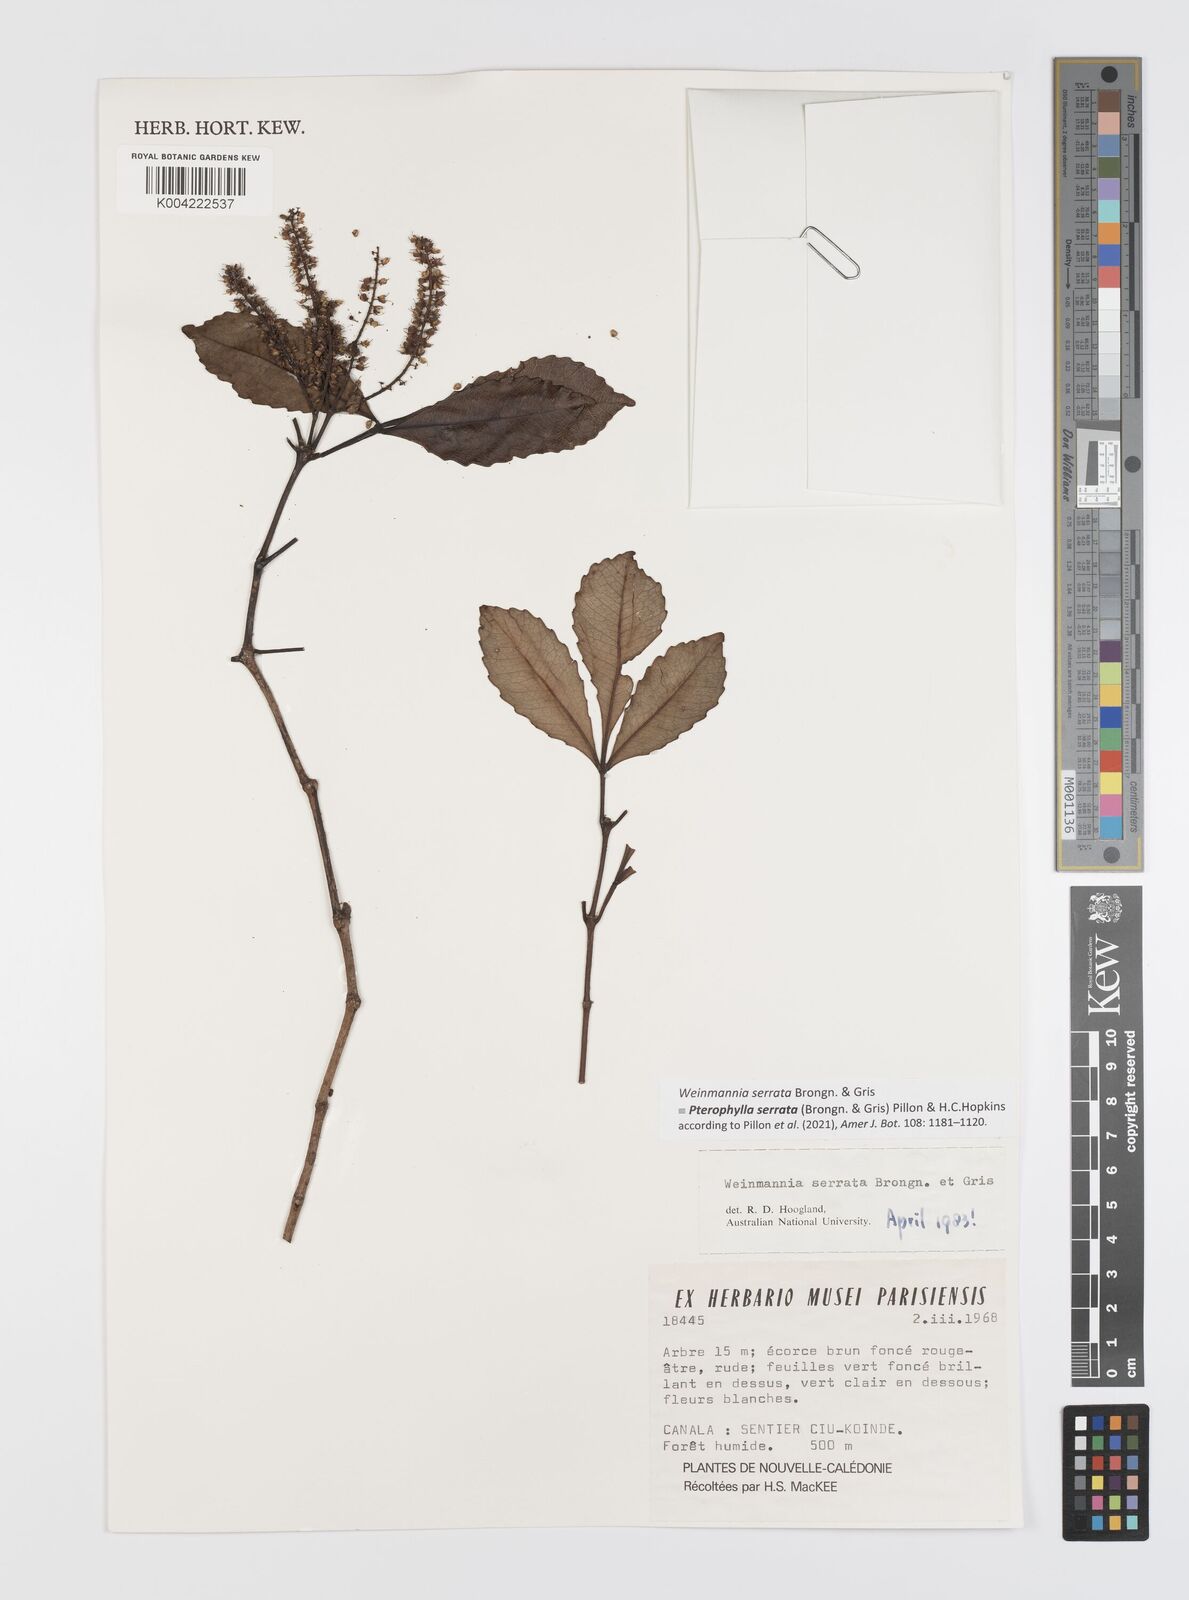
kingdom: Plantae
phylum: Tracheophyta
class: Magnoliopsida
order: Oxalidales
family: Cunoniaceae
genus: Pterophylla
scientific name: Pterophylla serrata
